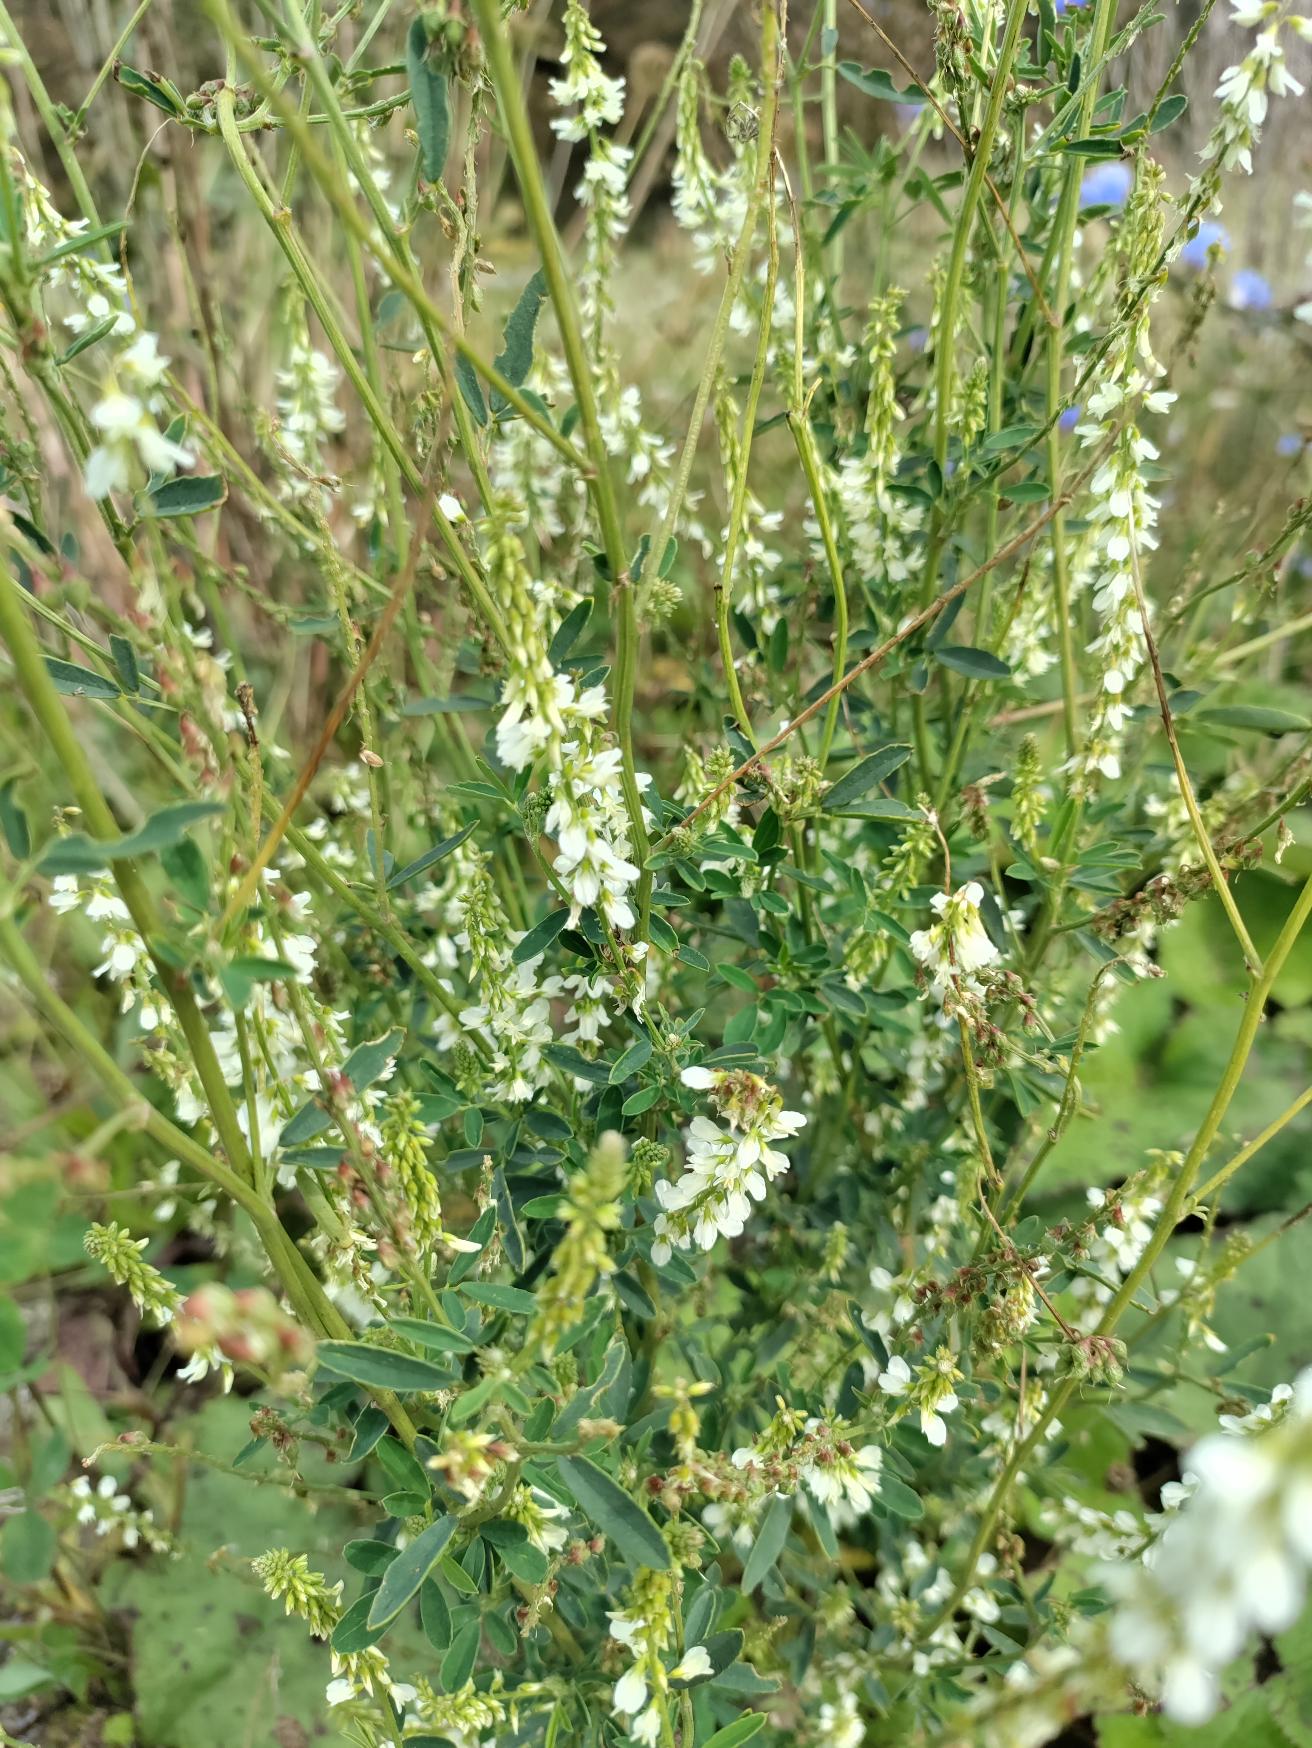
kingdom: Plantae
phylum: Tracheophyta
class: Magnoliopsida
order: Fabales
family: Fabaceae
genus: Melilotus
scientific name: Melilotus albus
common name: Hvid stenkløver
